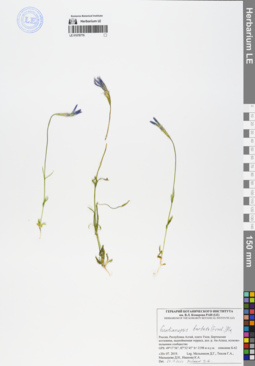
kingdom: Plantae
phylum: Tracheophyta
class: Magnoliopsida
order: Gentianales
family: Gentianaceae
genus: Gentianopsis
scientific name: Gentianopsis barbata
